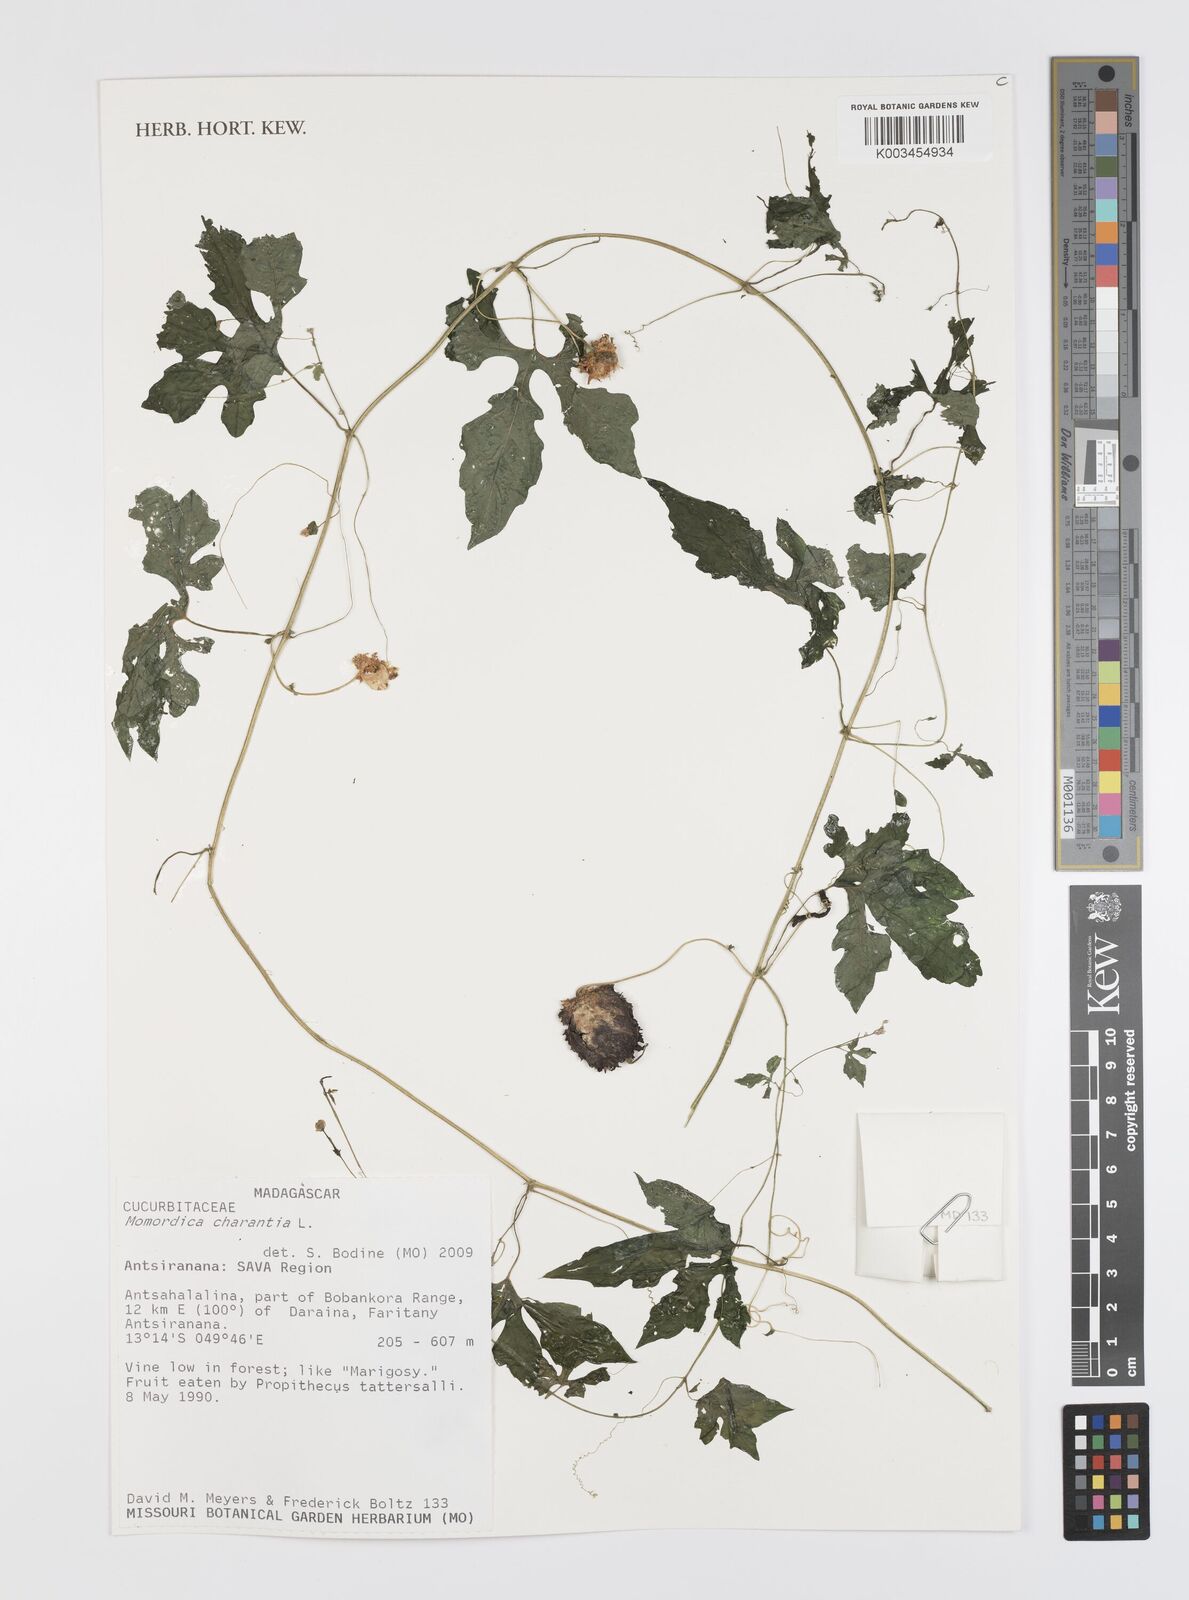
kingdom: Plantae
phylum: Tracheophyta
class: Magnoliopsida
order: Cucurbitales
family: Cucurbitaceae
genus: Momordica
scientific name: Momordica charantia
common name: Balsampear
